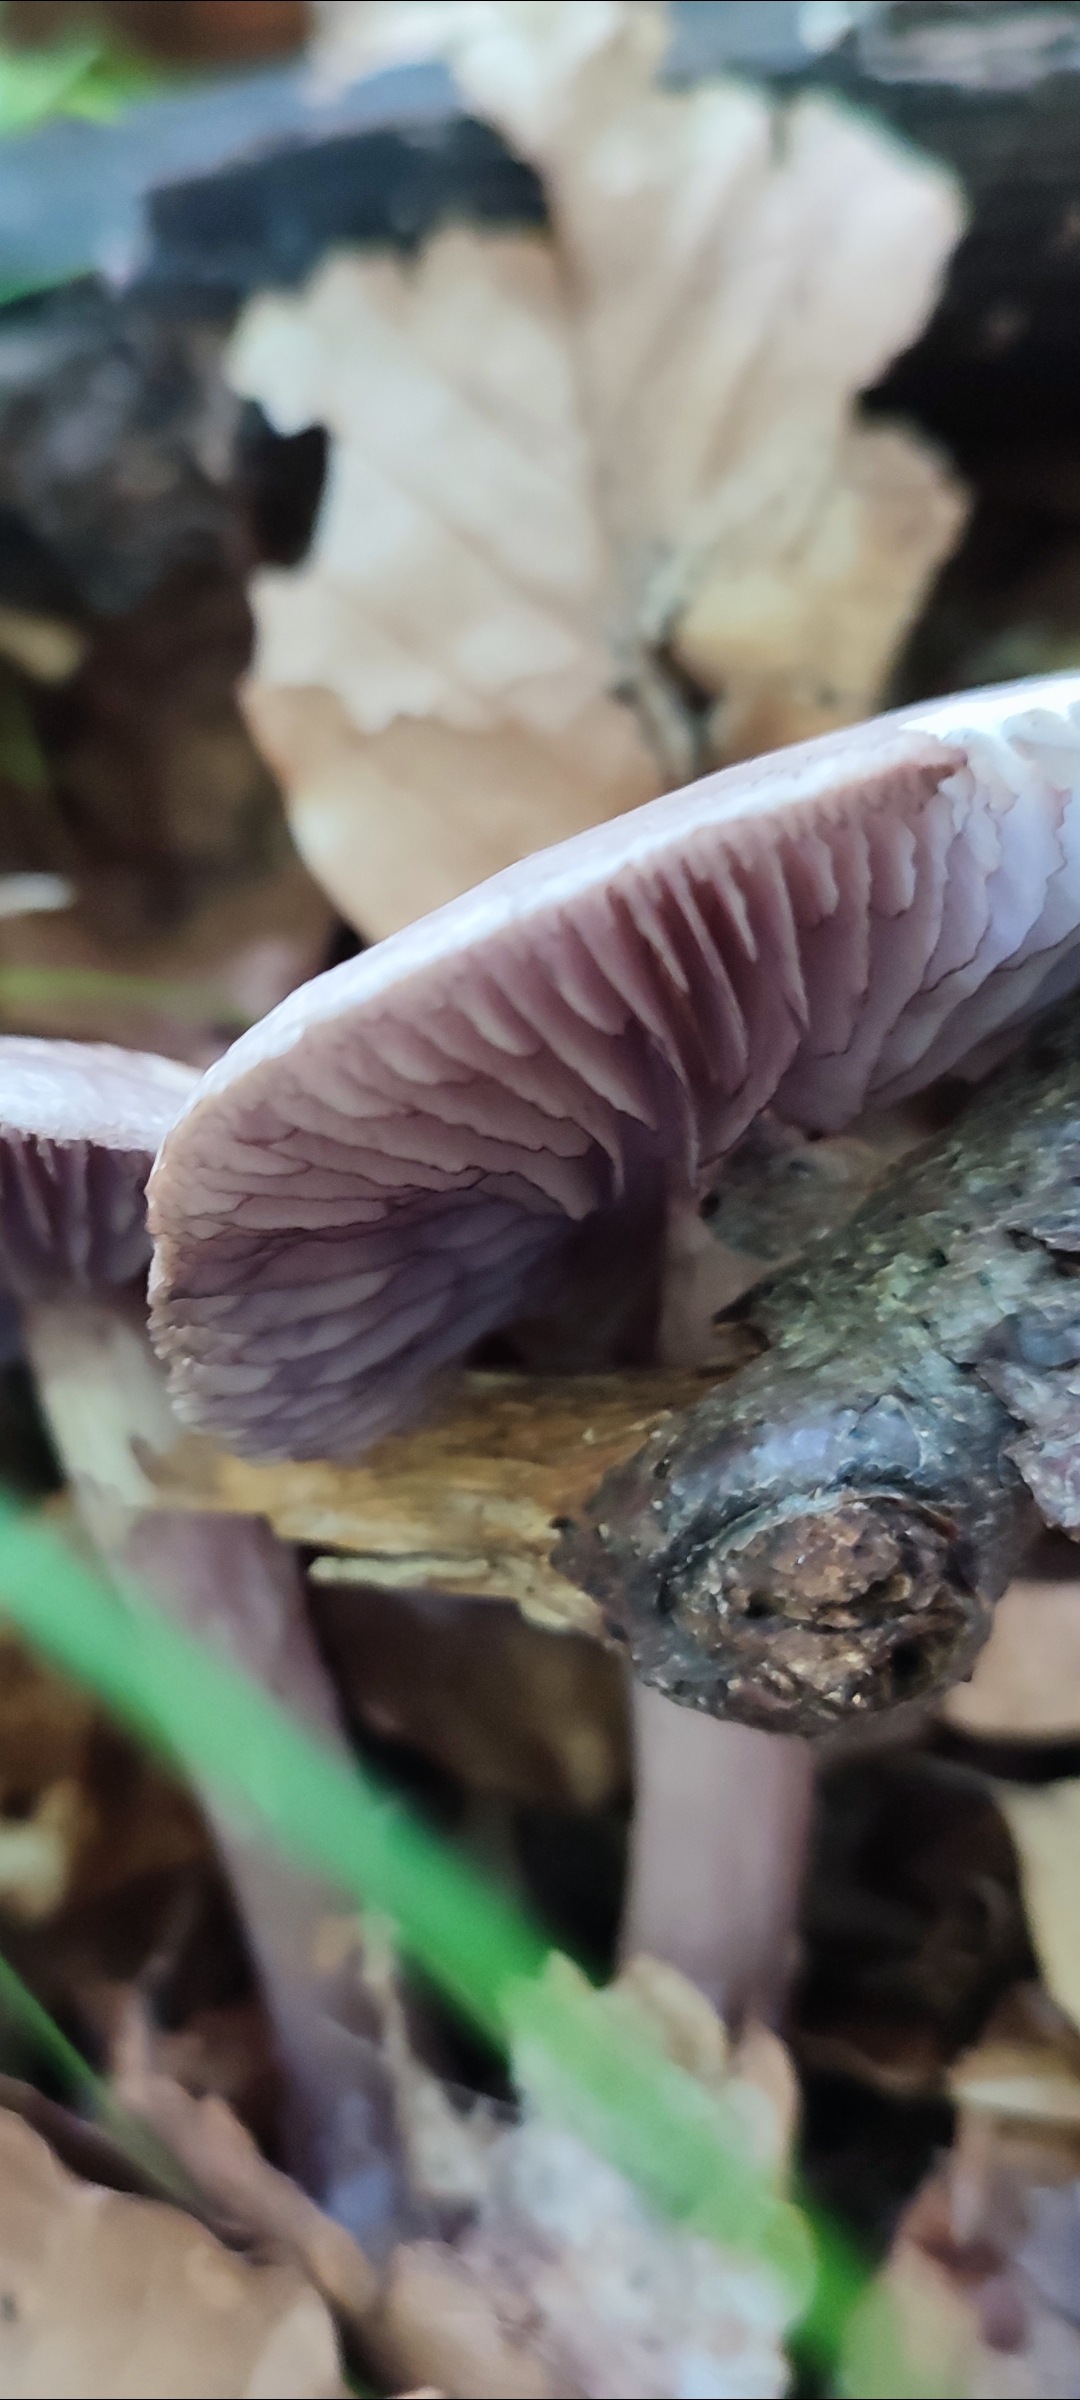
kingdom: Fungi
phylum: Basidiomycota
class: Agaricomycetes
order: Agaricales
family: Mycenaceae
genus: Mycena
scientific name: Mycena pelianthina
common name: mørkbladet huesvamp
